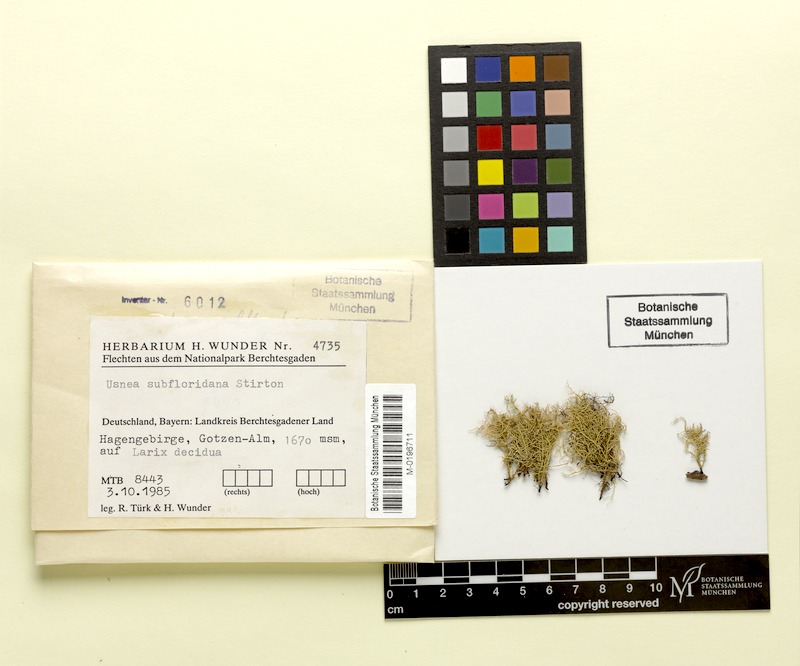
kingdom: Fungi
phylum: Ascomycota
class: Lecanoromycetes
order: Lecanorales
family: Parmeliaceae
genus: Usnea
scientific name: Usnea subfloridana
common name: Boreal beard lichen
